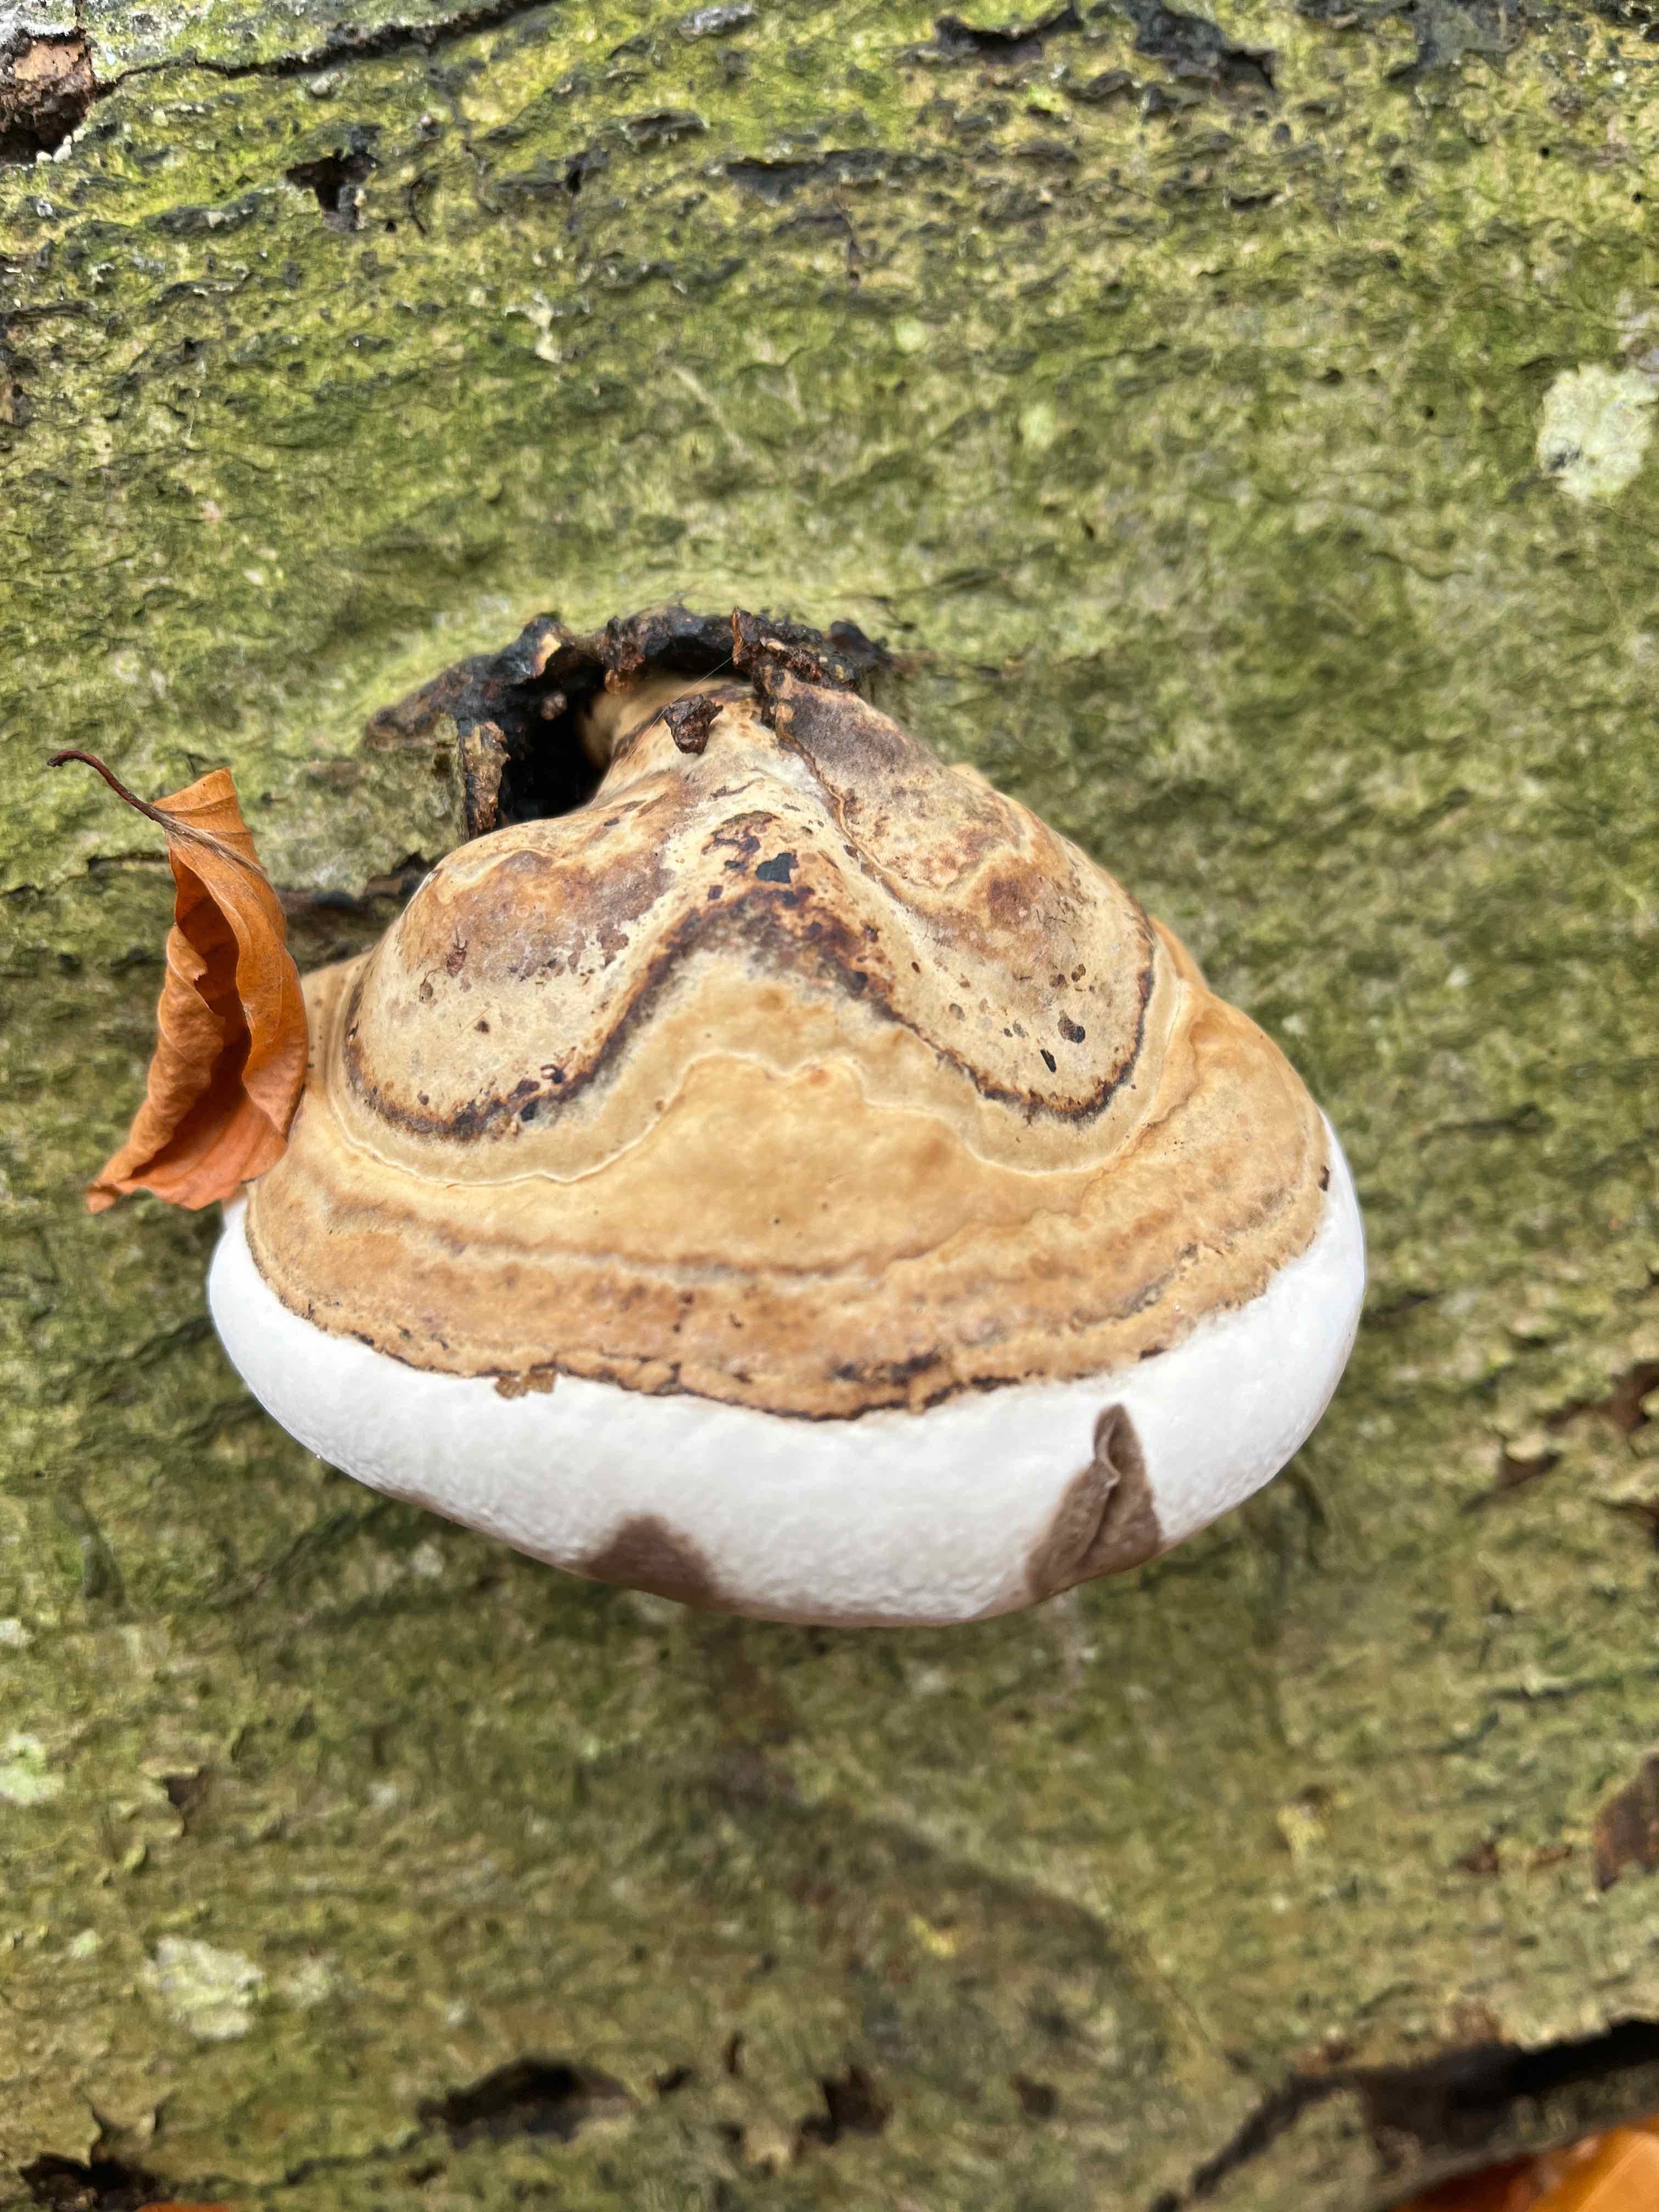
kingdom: Fungi
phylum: Basidiomycota
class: Agaricomycetes
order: Polyporales
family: Polyporaceae
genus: Fomes
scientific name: Fomes fomentarius
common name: tøndersvamp
